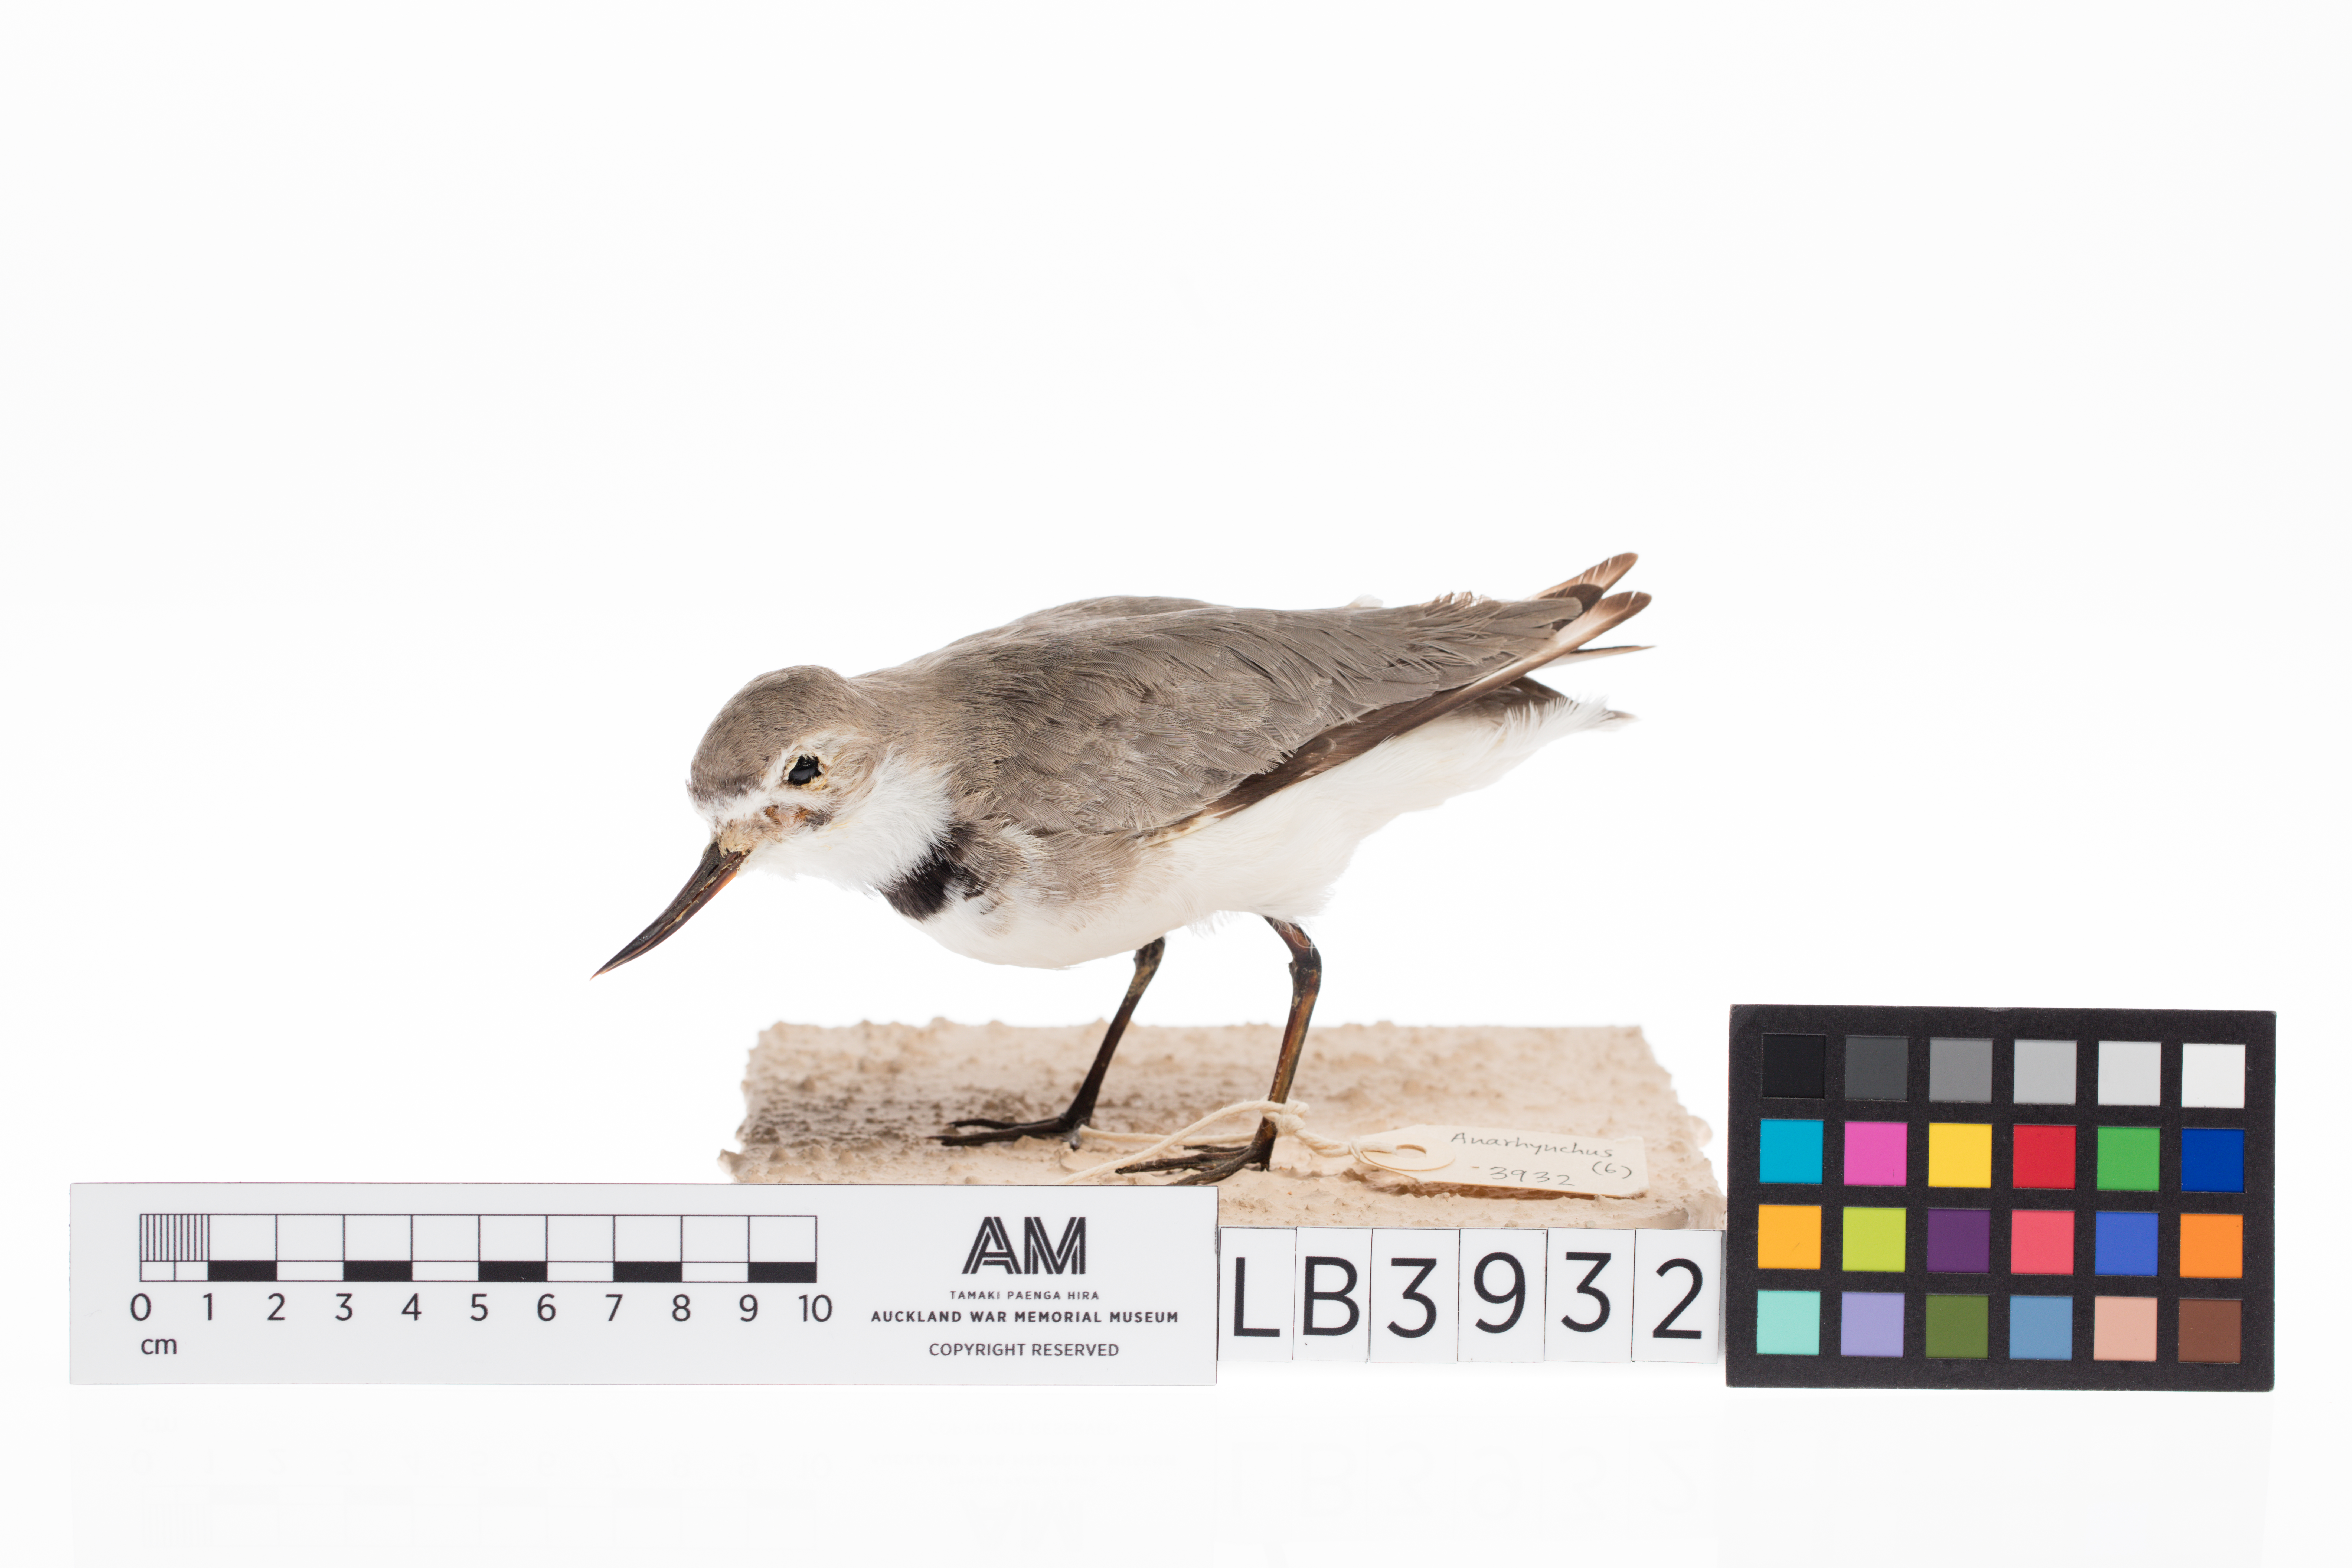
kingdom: Animalia
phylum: Chordata
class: Aves
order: Charadriiformes
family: Charadriidae
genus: Charadrius
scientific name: Charadrius frontalis
